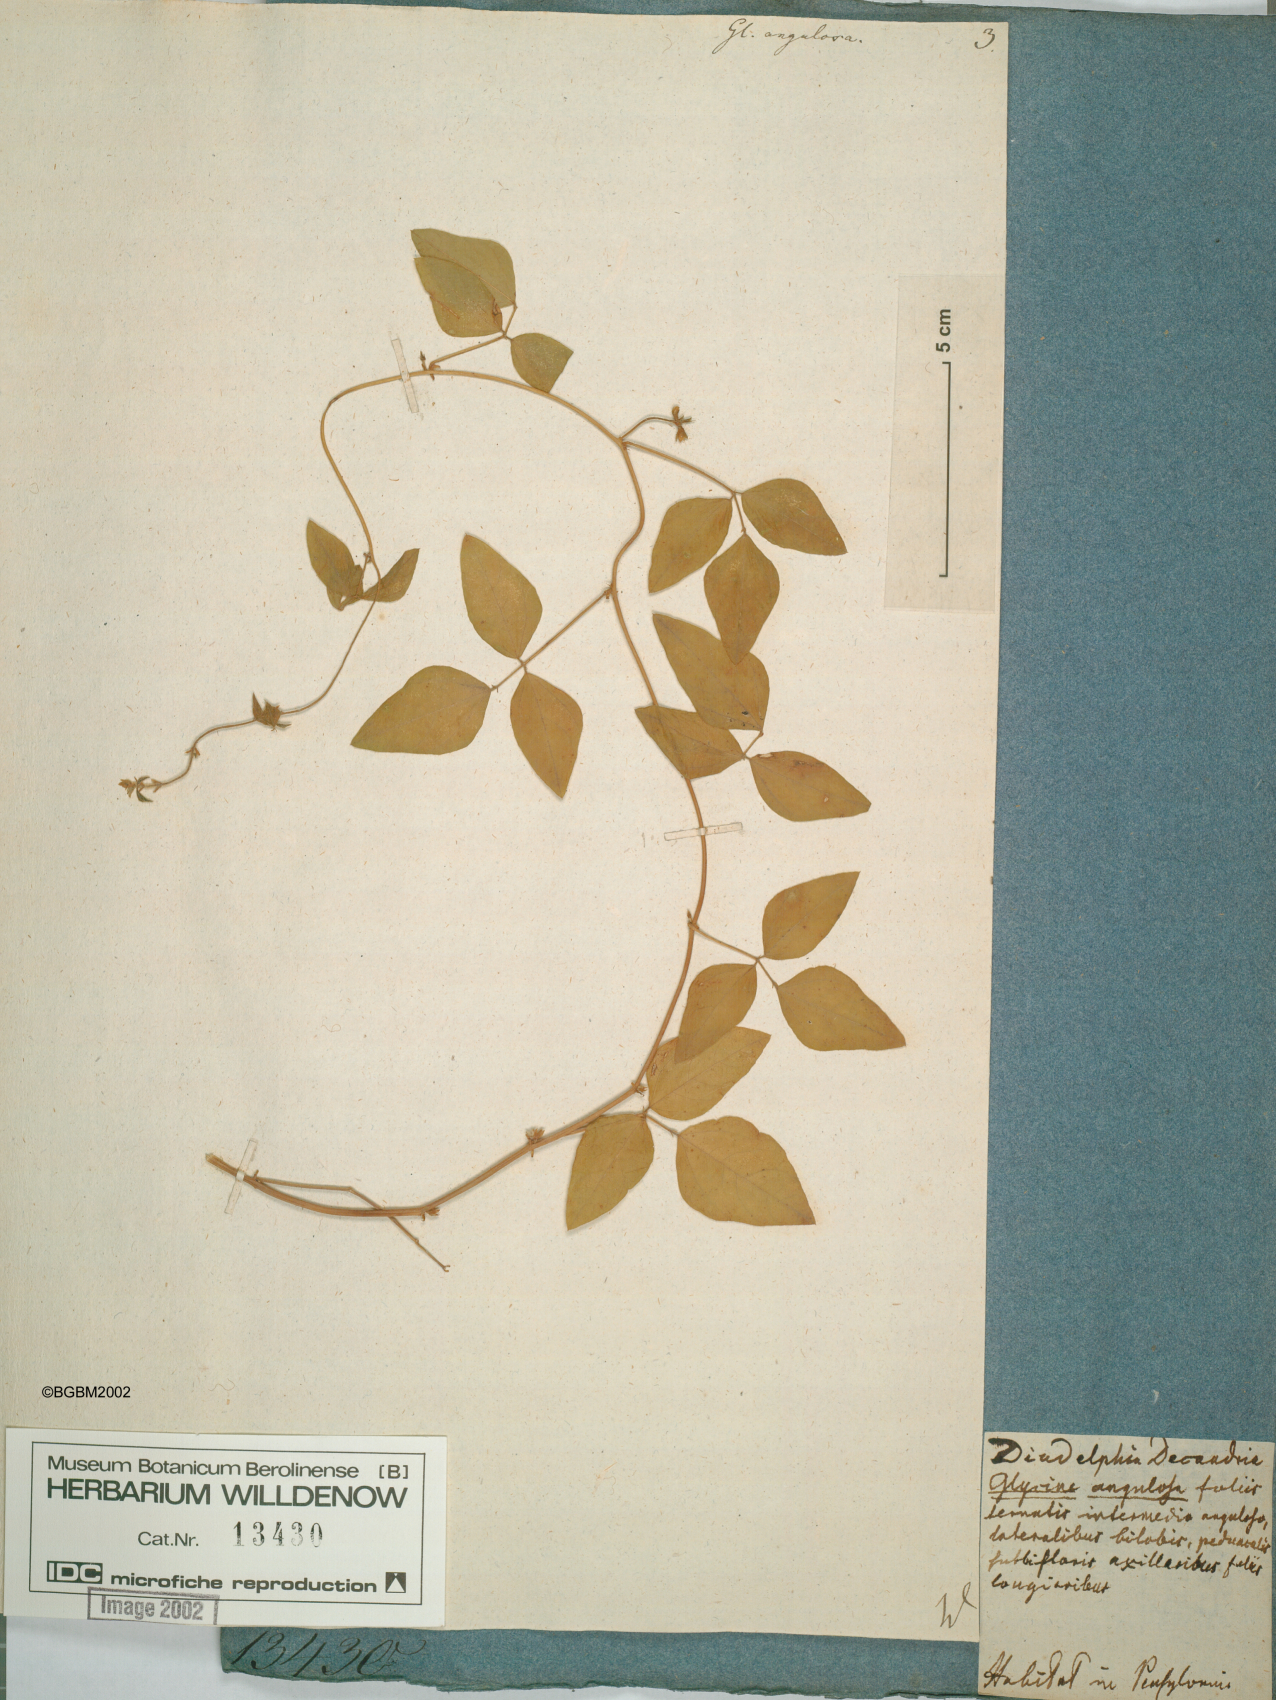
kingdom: Plantae
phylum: Tracheophyta
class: Magnoliopsida
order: Fabales
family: Fabaceae
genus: Strophostyles
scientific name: Strophostyles helvola
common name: Trailing wild bean
